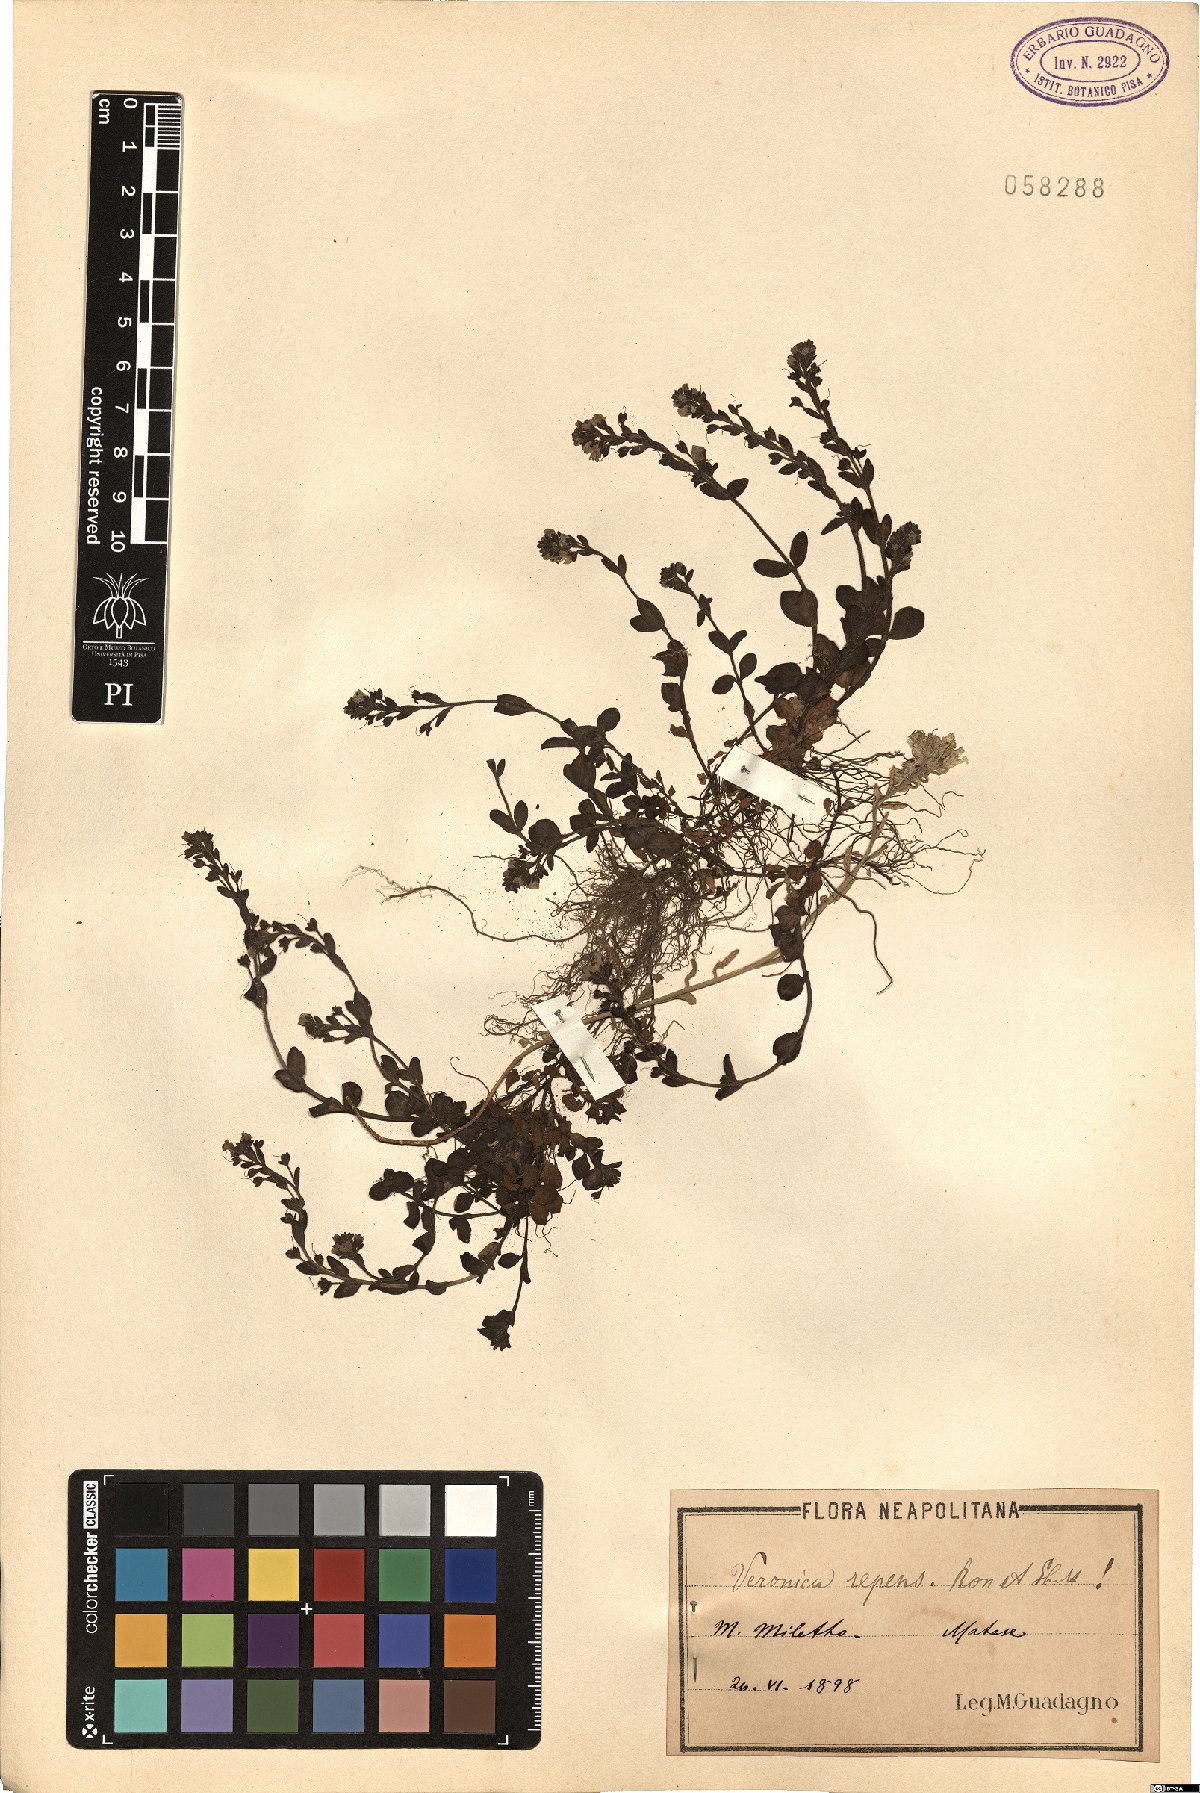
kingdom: Plantae
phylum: Tracheophyta
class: Magnoliopsida
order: Lamiales
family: Plantaginaceae
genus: Veronica
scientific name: Veronica repens
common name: Corsican speedwell
